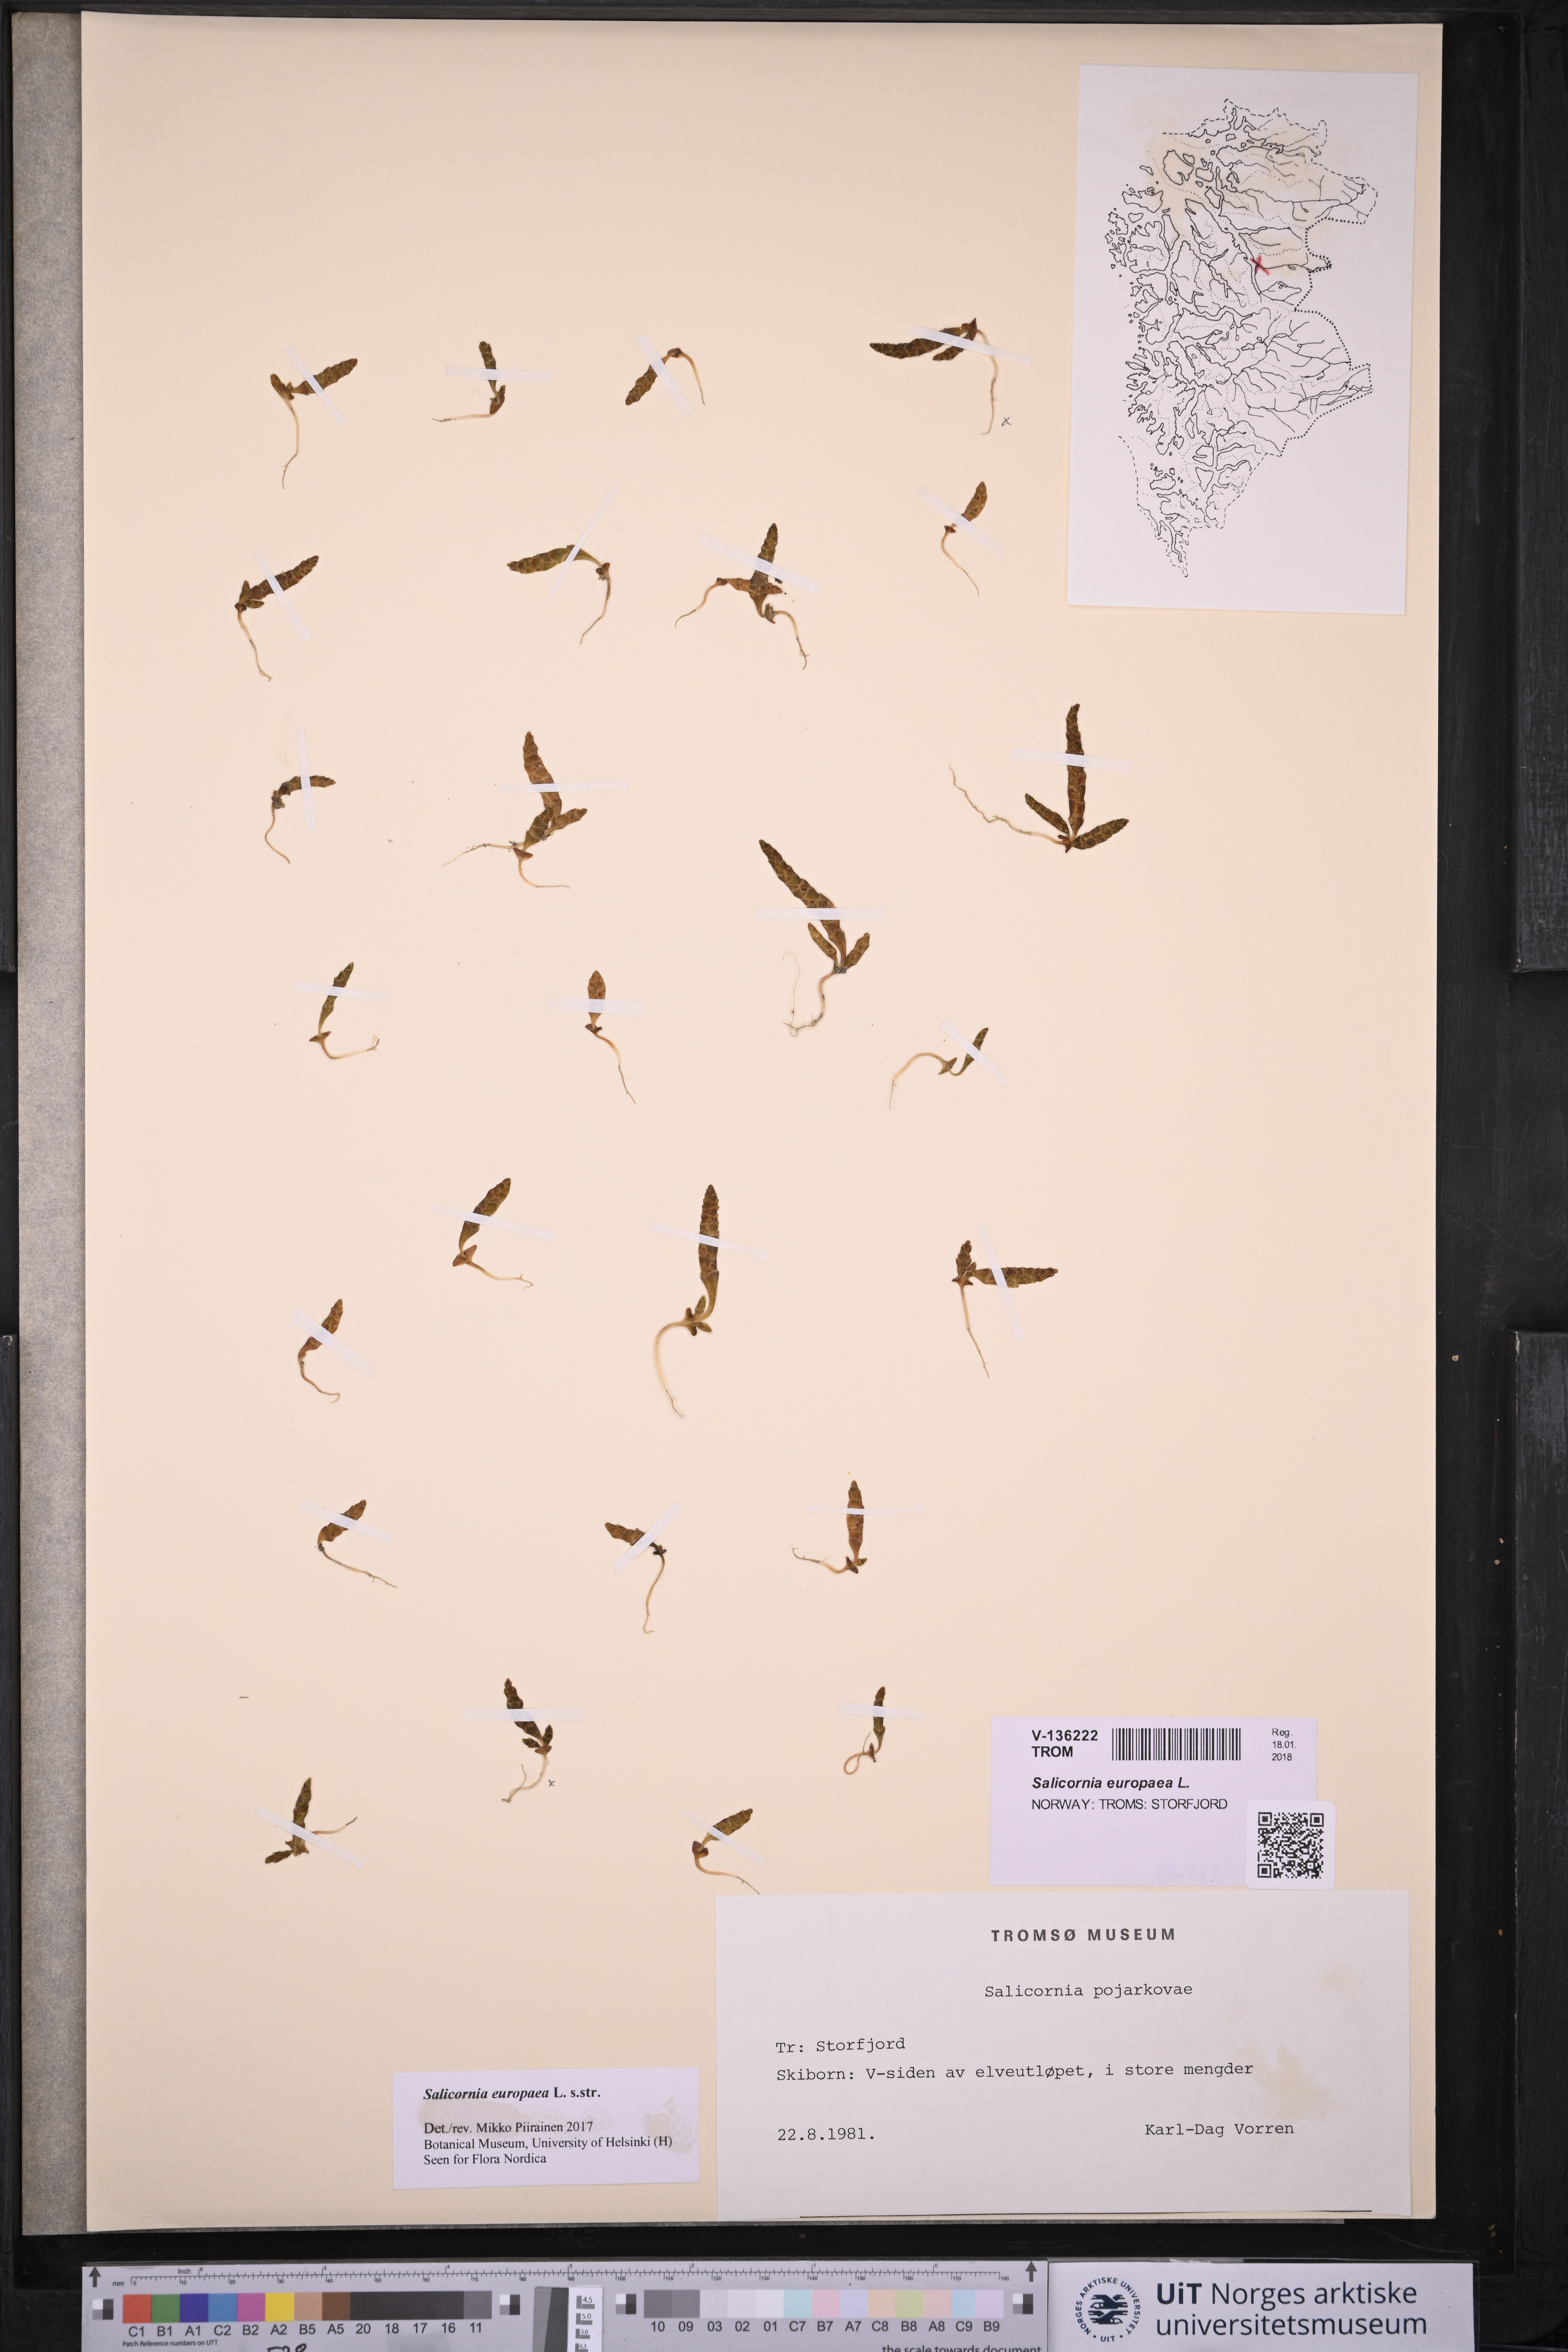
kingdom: Plantae
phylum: Tracheophyta
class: Magnoliopsida
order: Caryophyllales
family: Amaranthaceae
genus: Salicornia
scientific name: Salicornia europaea
